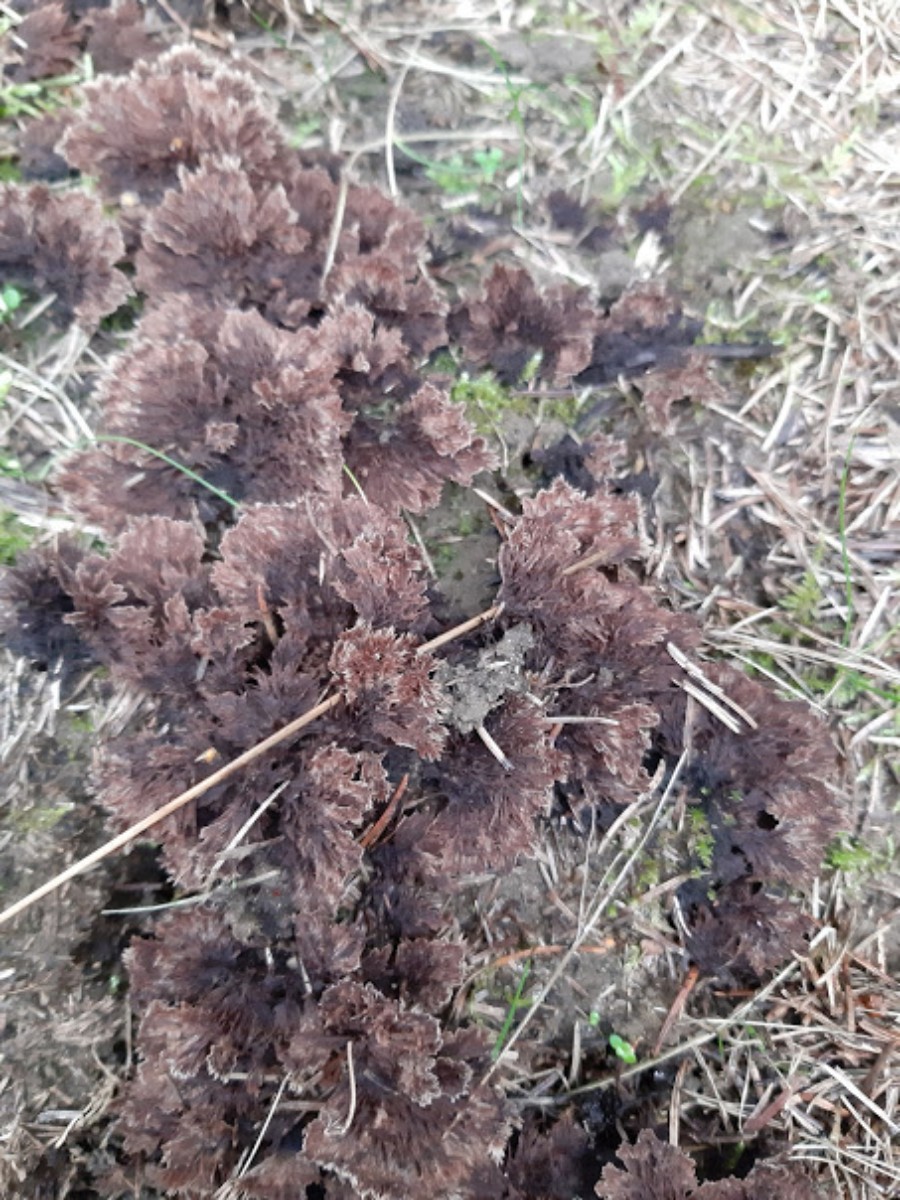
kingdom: Fungi
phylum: Basidiomycota
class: Agaricomycetes
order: Thelephorales
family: Thelephoraceae
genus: Thelephora
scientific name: Thelephora terrestris
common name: fliget frynsesvamp
